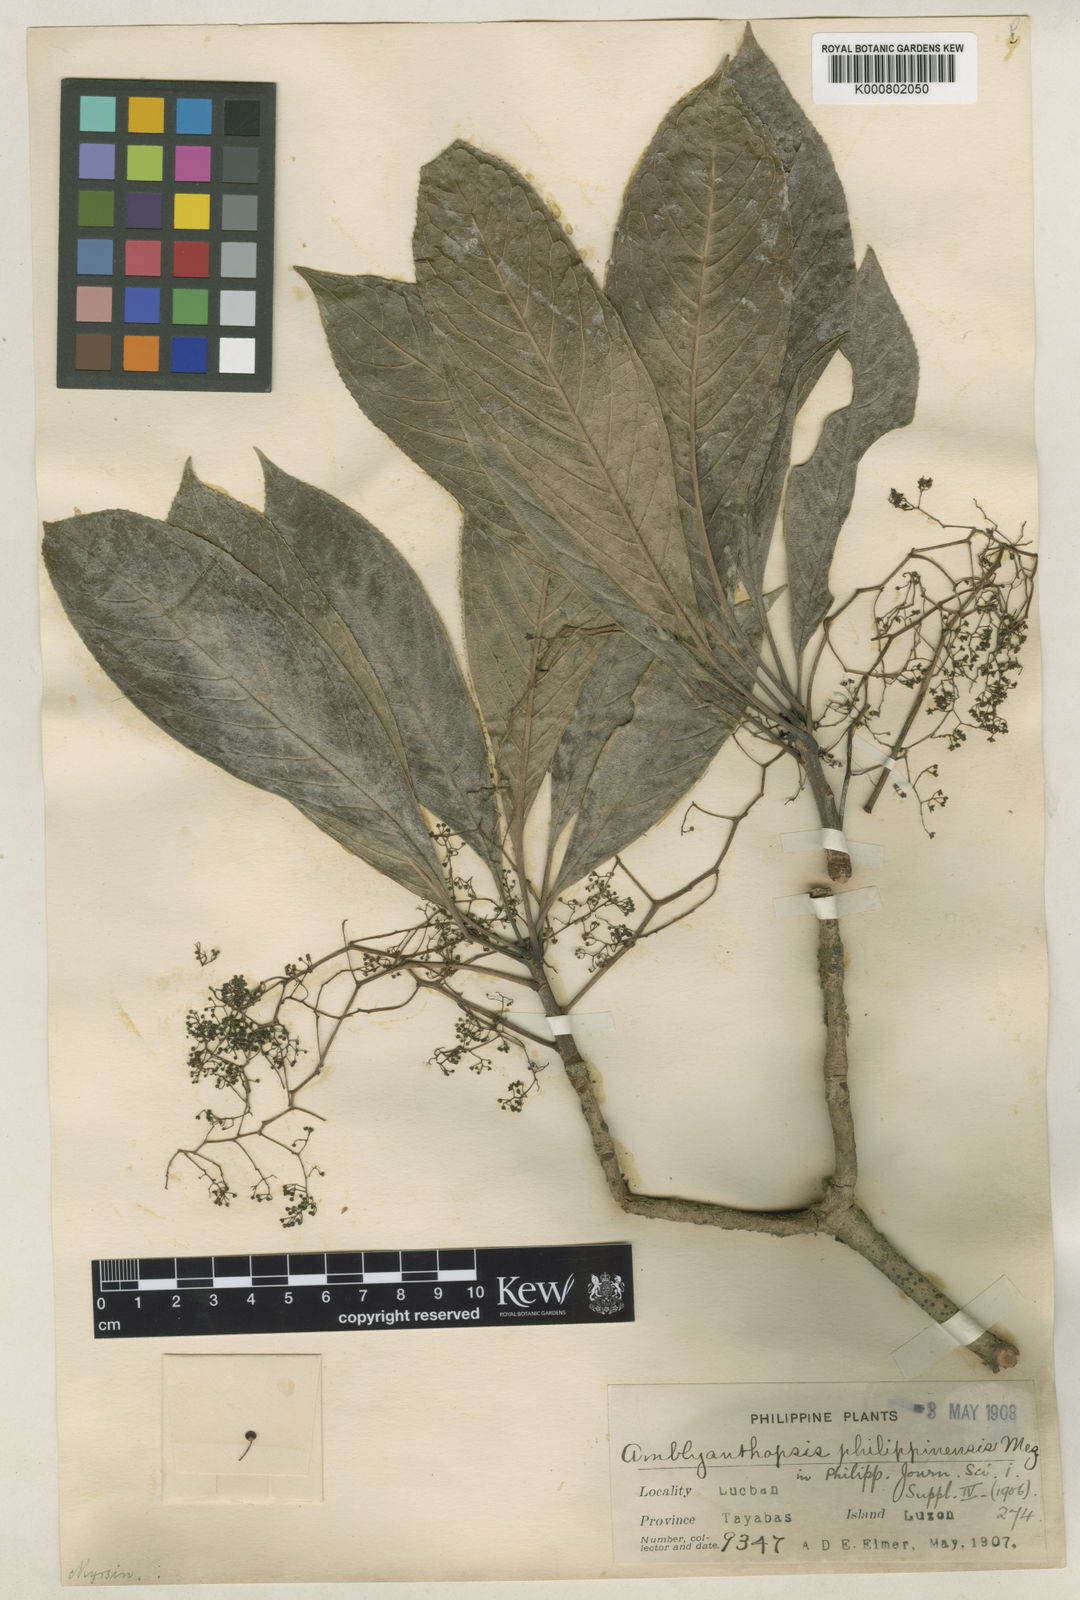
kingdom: Plantae
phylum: Tracheophyta
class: Magnoliopsida
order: Ericales
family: Primulaceae
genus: Discocalyx
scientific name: Discocalyx philippinensis
